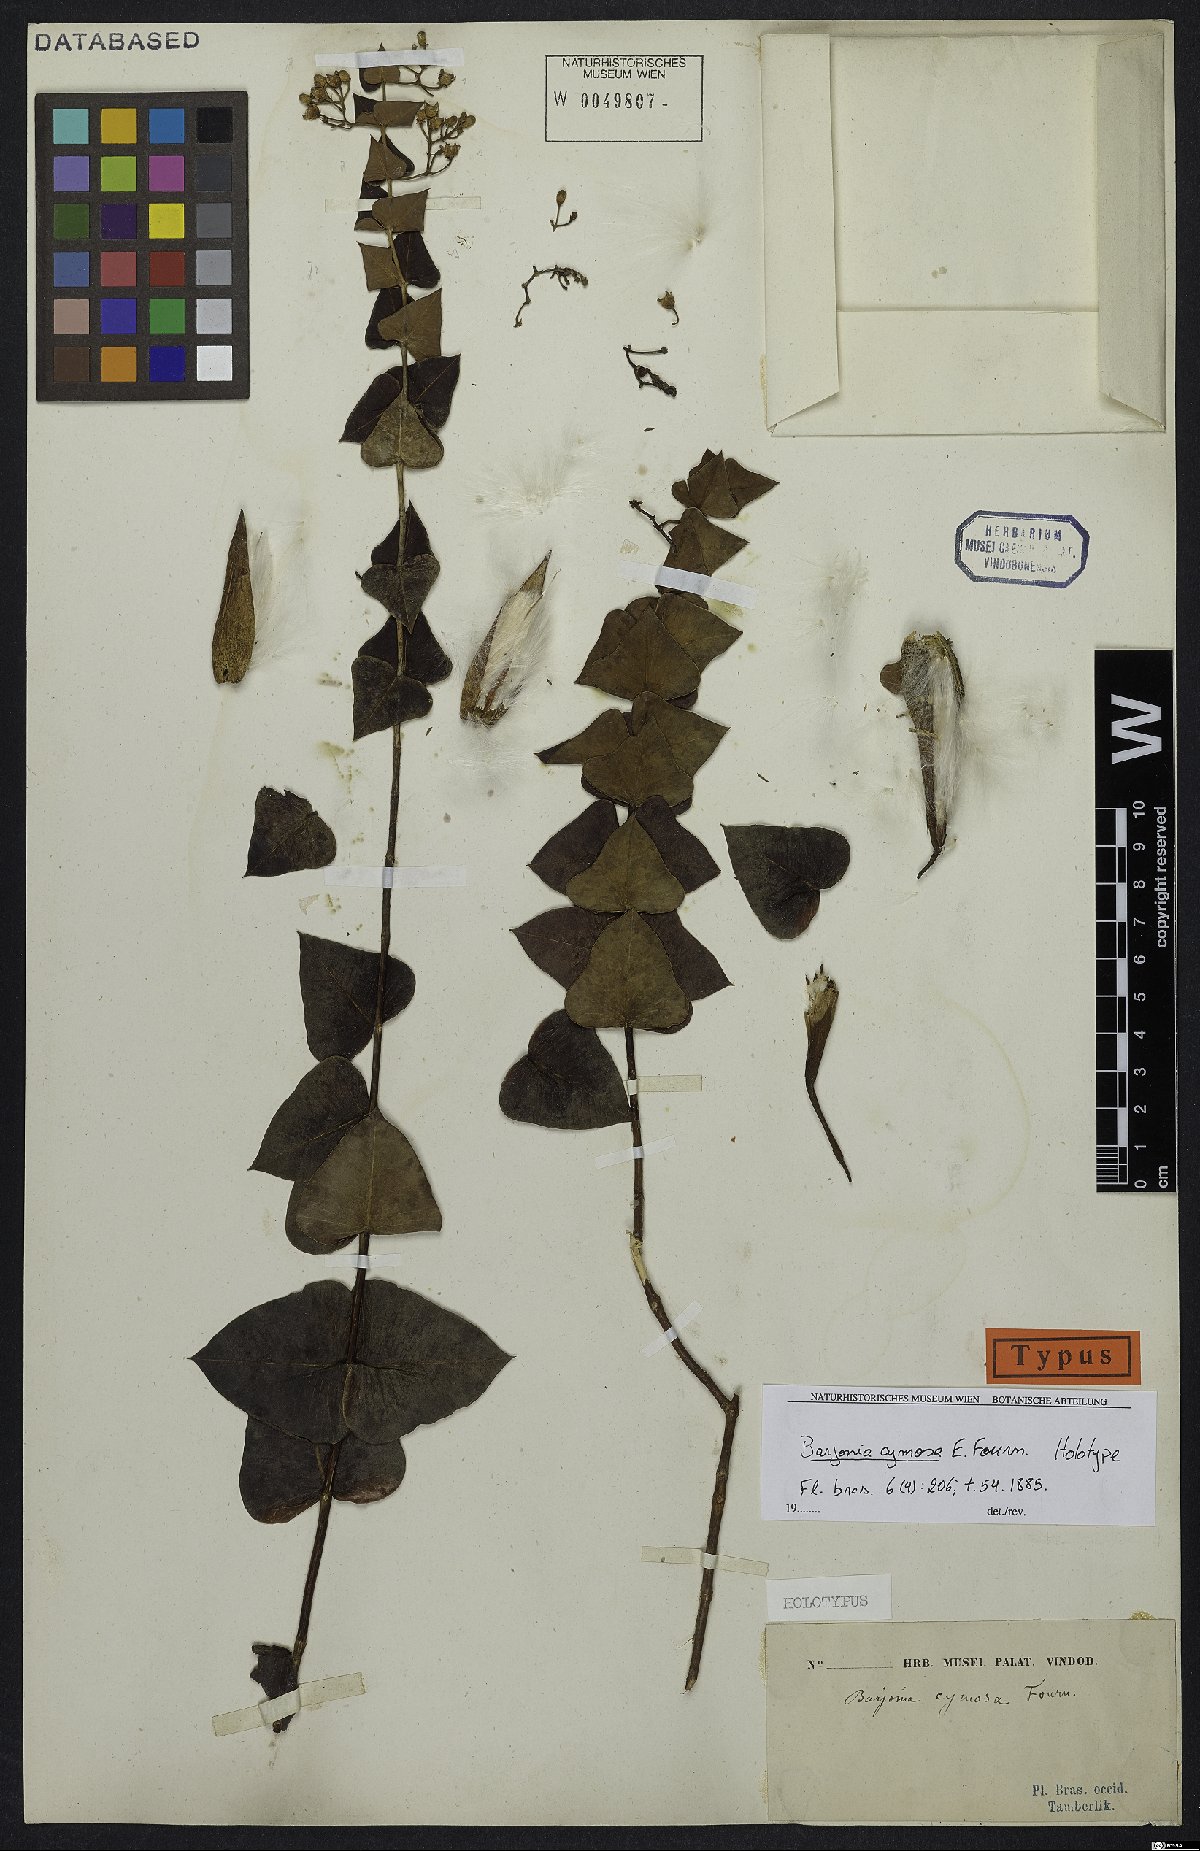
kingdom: Plantae
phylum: Tracheophyta
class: Magnoliopsida
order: Gentianales
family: Apocynaceae
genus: Barjonia
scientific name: Barjonia cymosa
